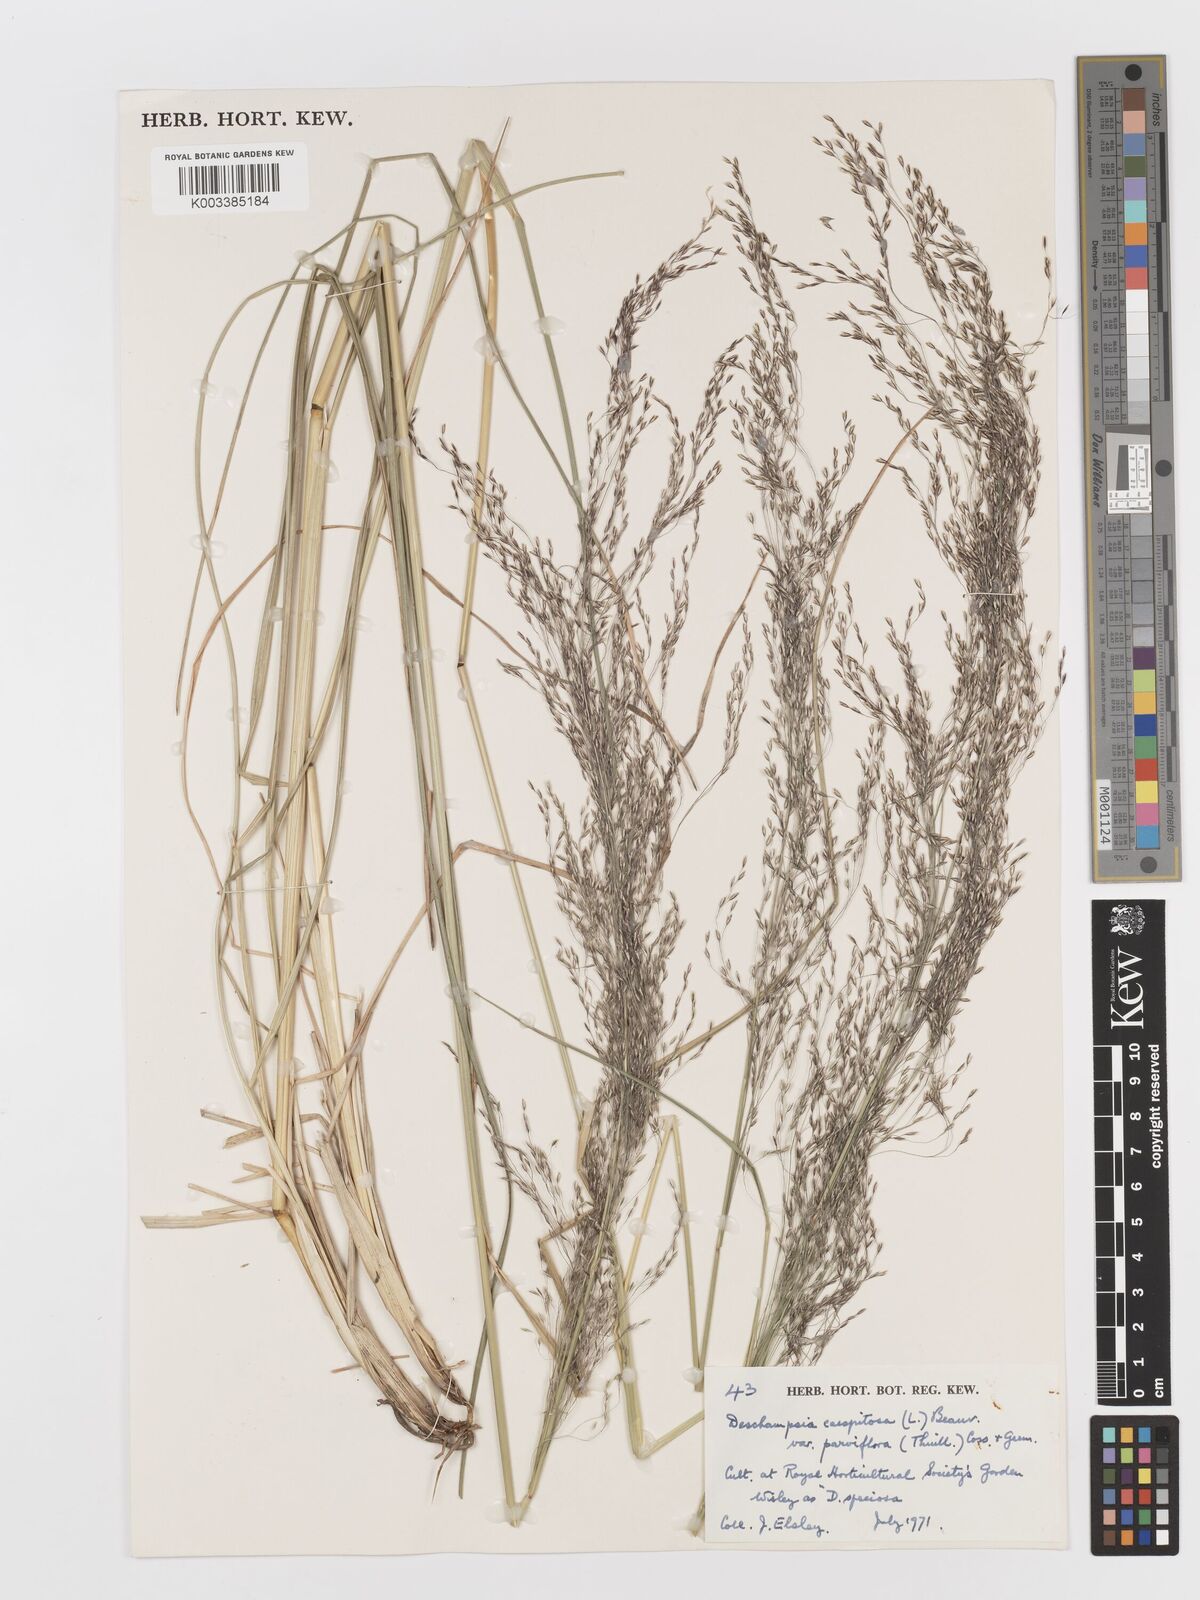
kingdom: Plantae
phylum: Tracheophyta
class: Liliopsida
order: Poales
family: Poaceae
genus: Deschampsia
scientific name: Deschampsia cespitosa
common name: Tufted hair-grass
